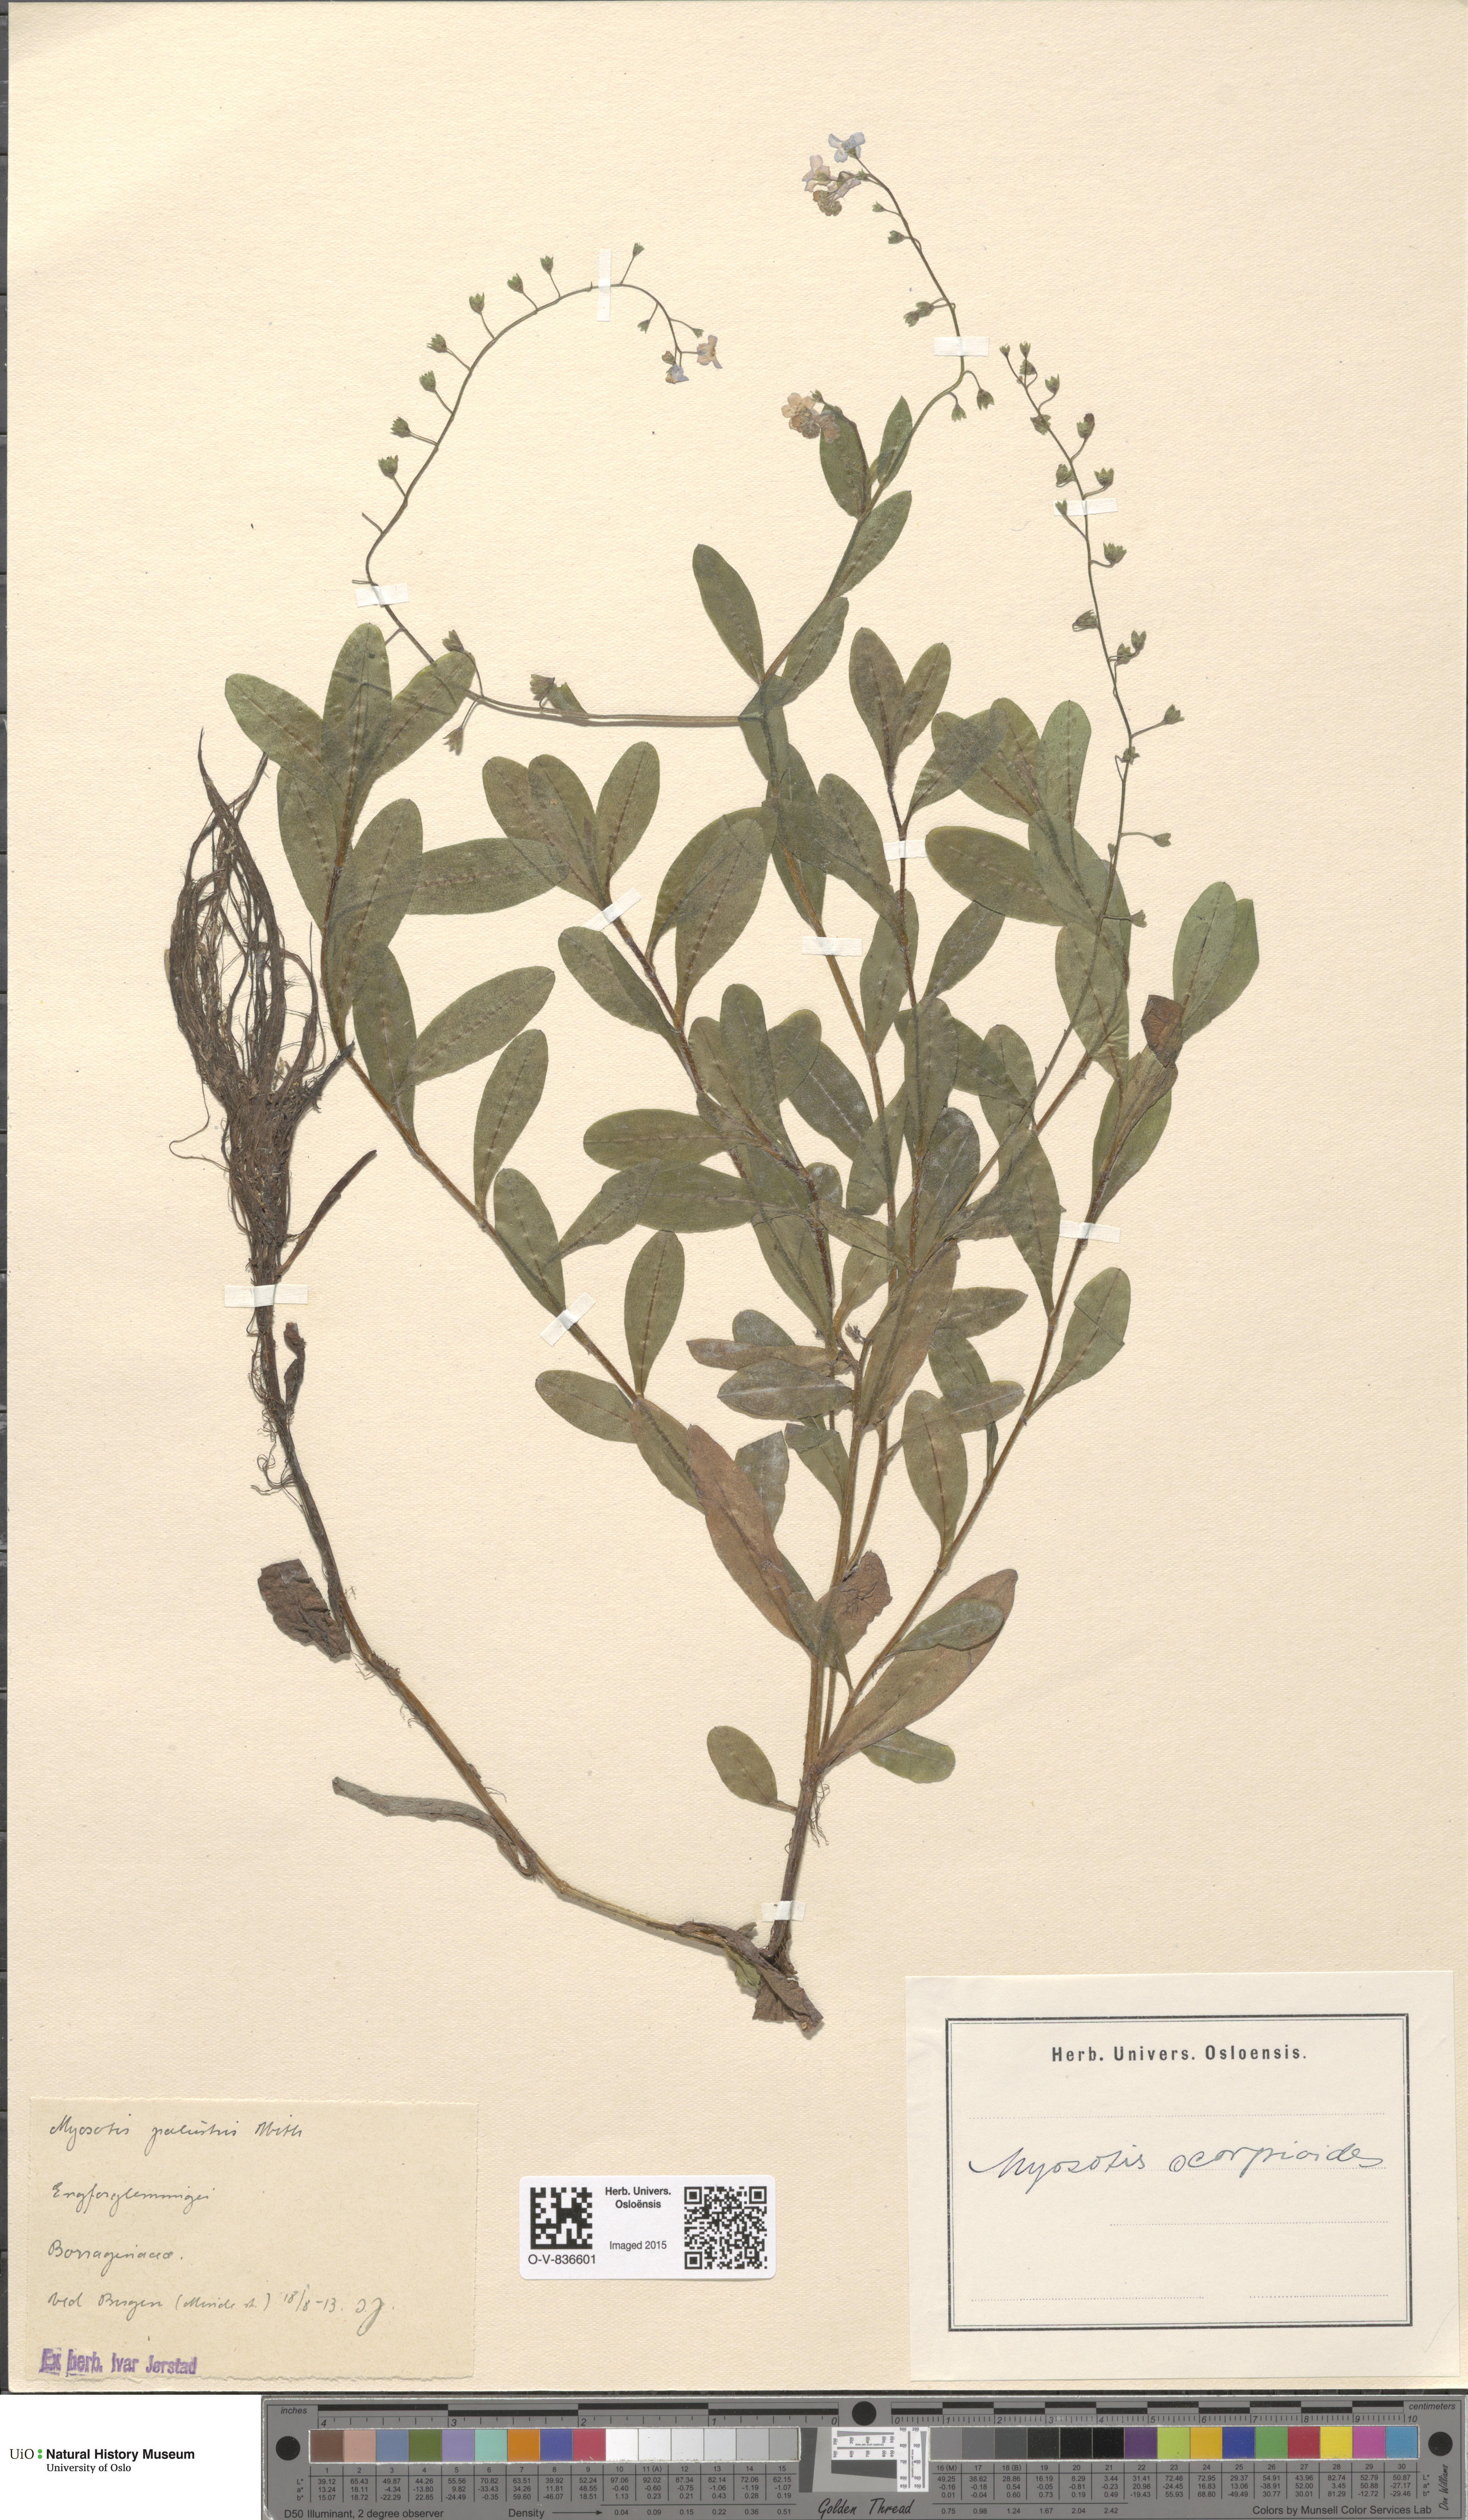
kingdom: Plantae
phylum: Tracheophyta
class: Magnoliopsida
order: Boraginales
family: Boraginaceae
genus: Myosotis
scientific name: Myosotis scorpioides
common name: Water forget-me-not
